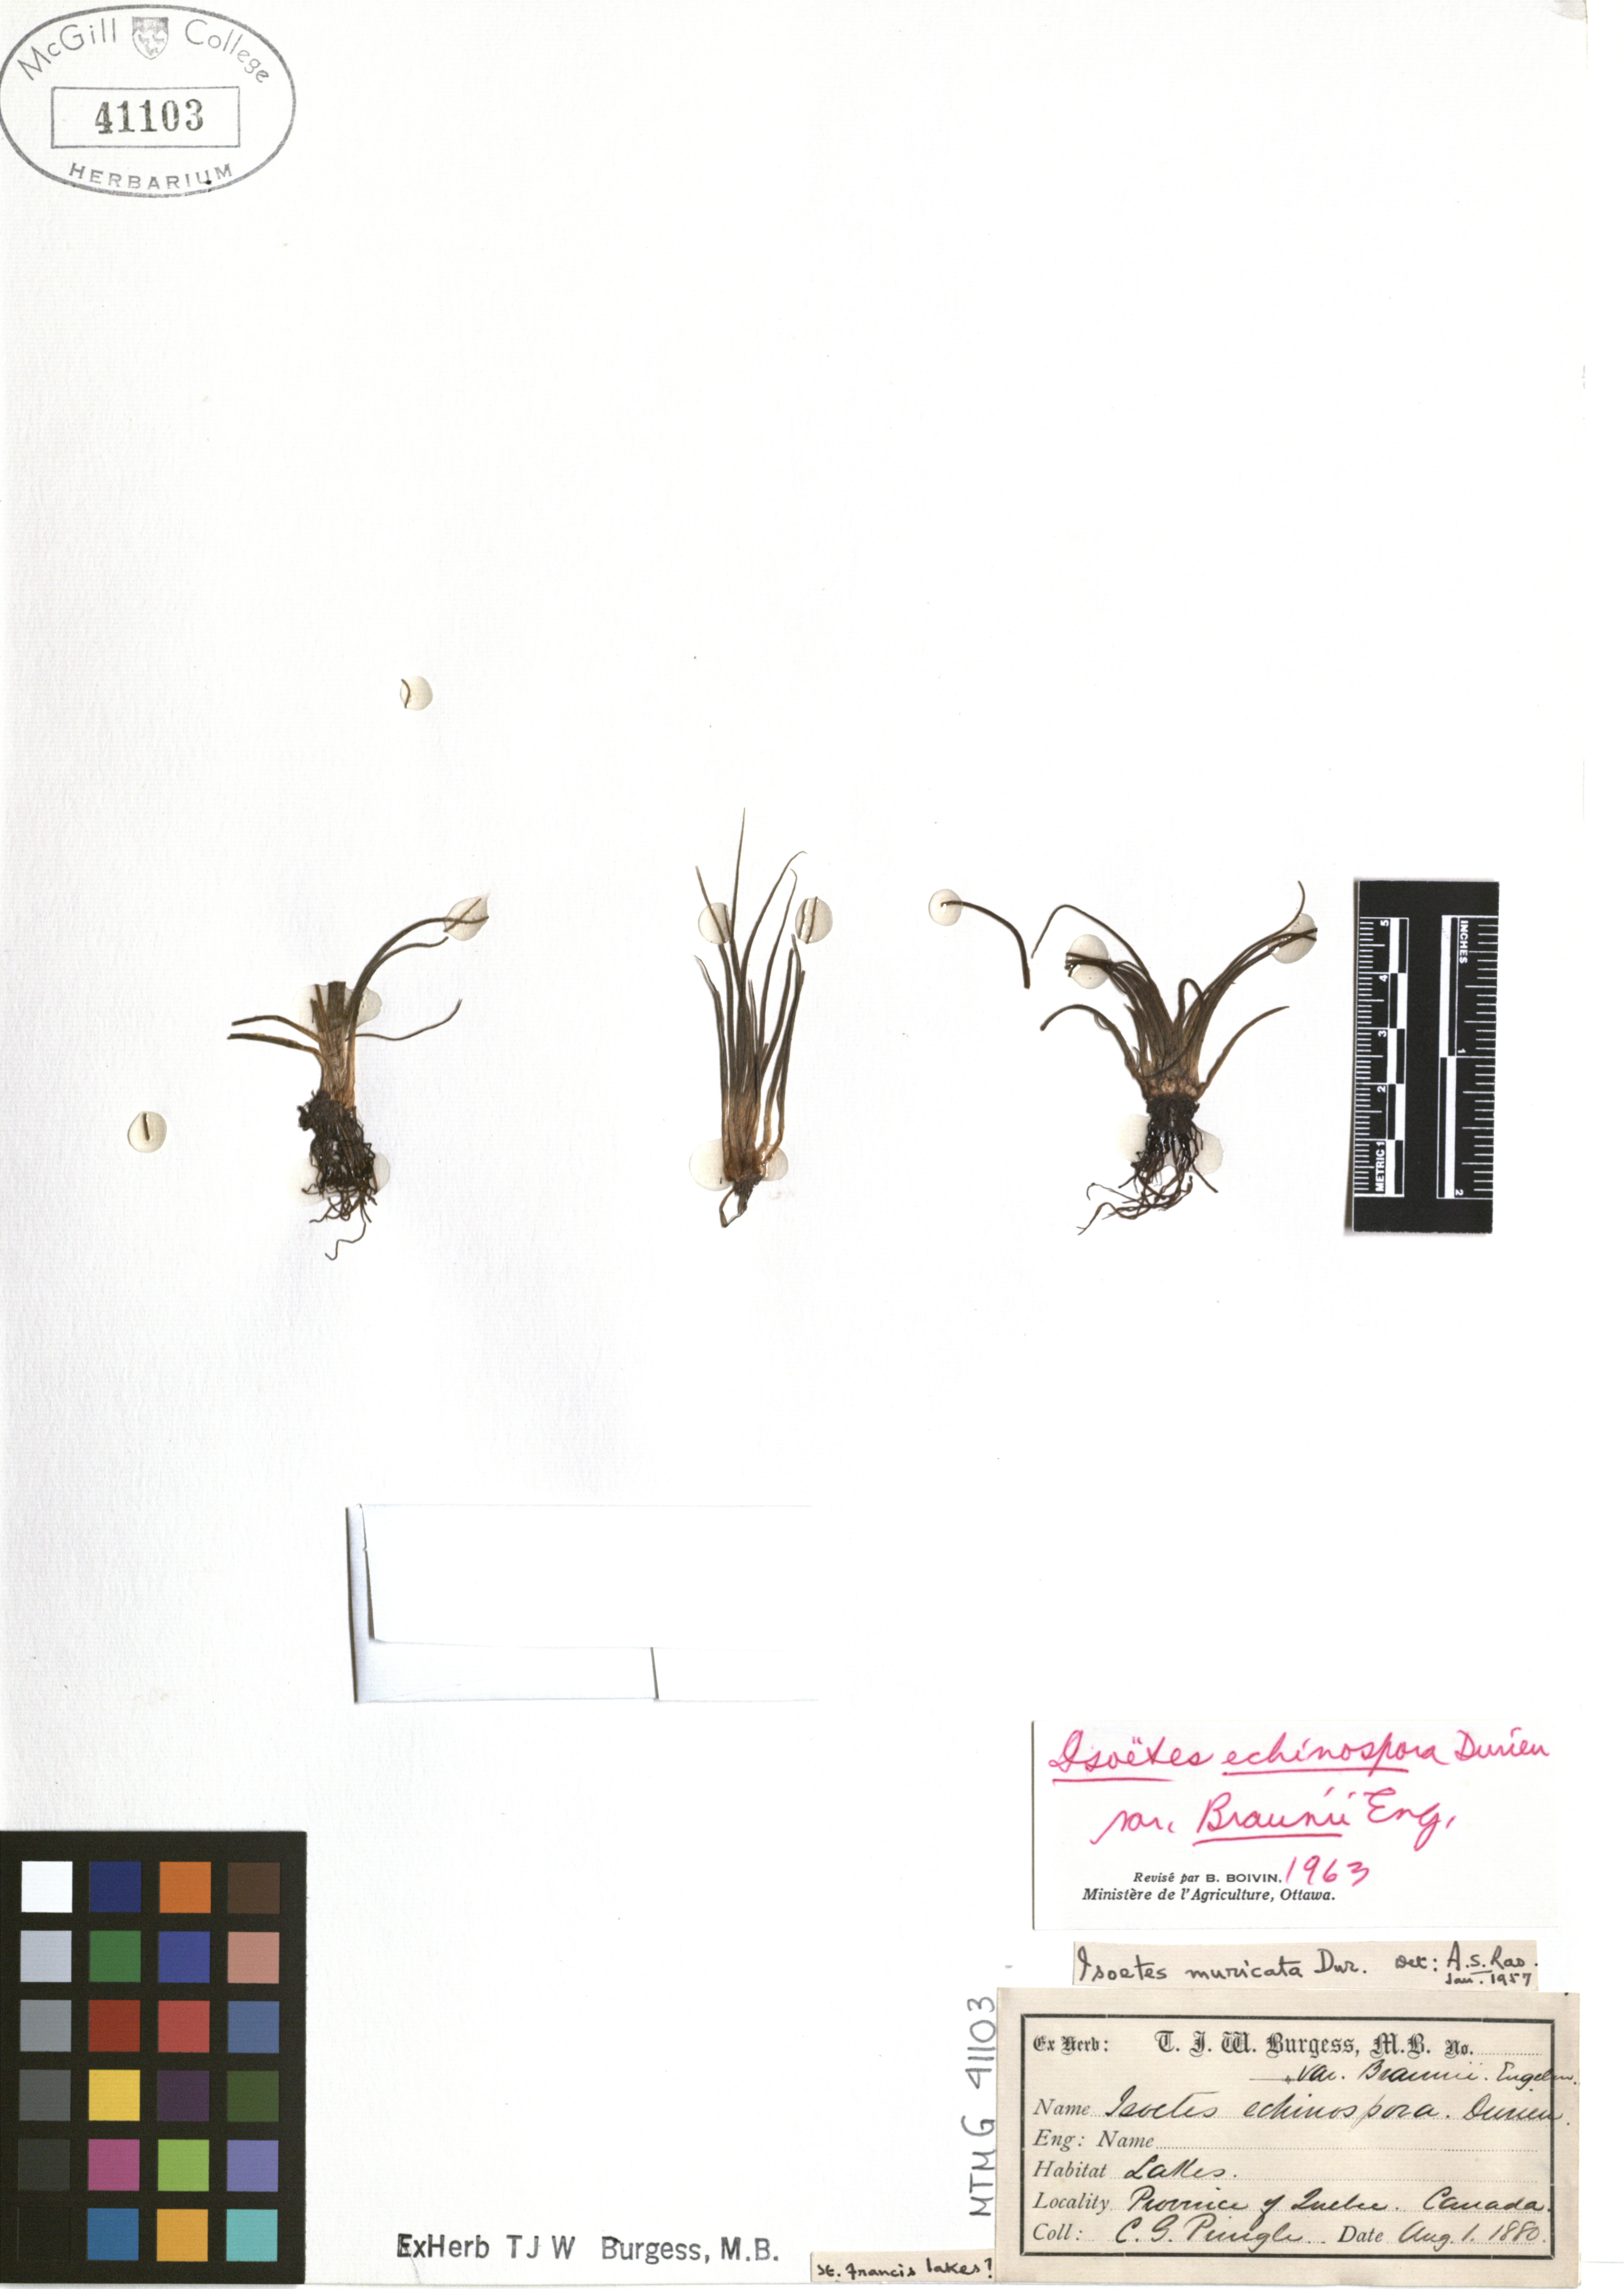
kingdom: Plantae
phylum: Tracheophyta
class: Lycopodiopsida
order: Isoetales
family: Isoetaceae
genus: Isoetes
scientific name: Isoetes echinospora
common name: Spring quillwort
